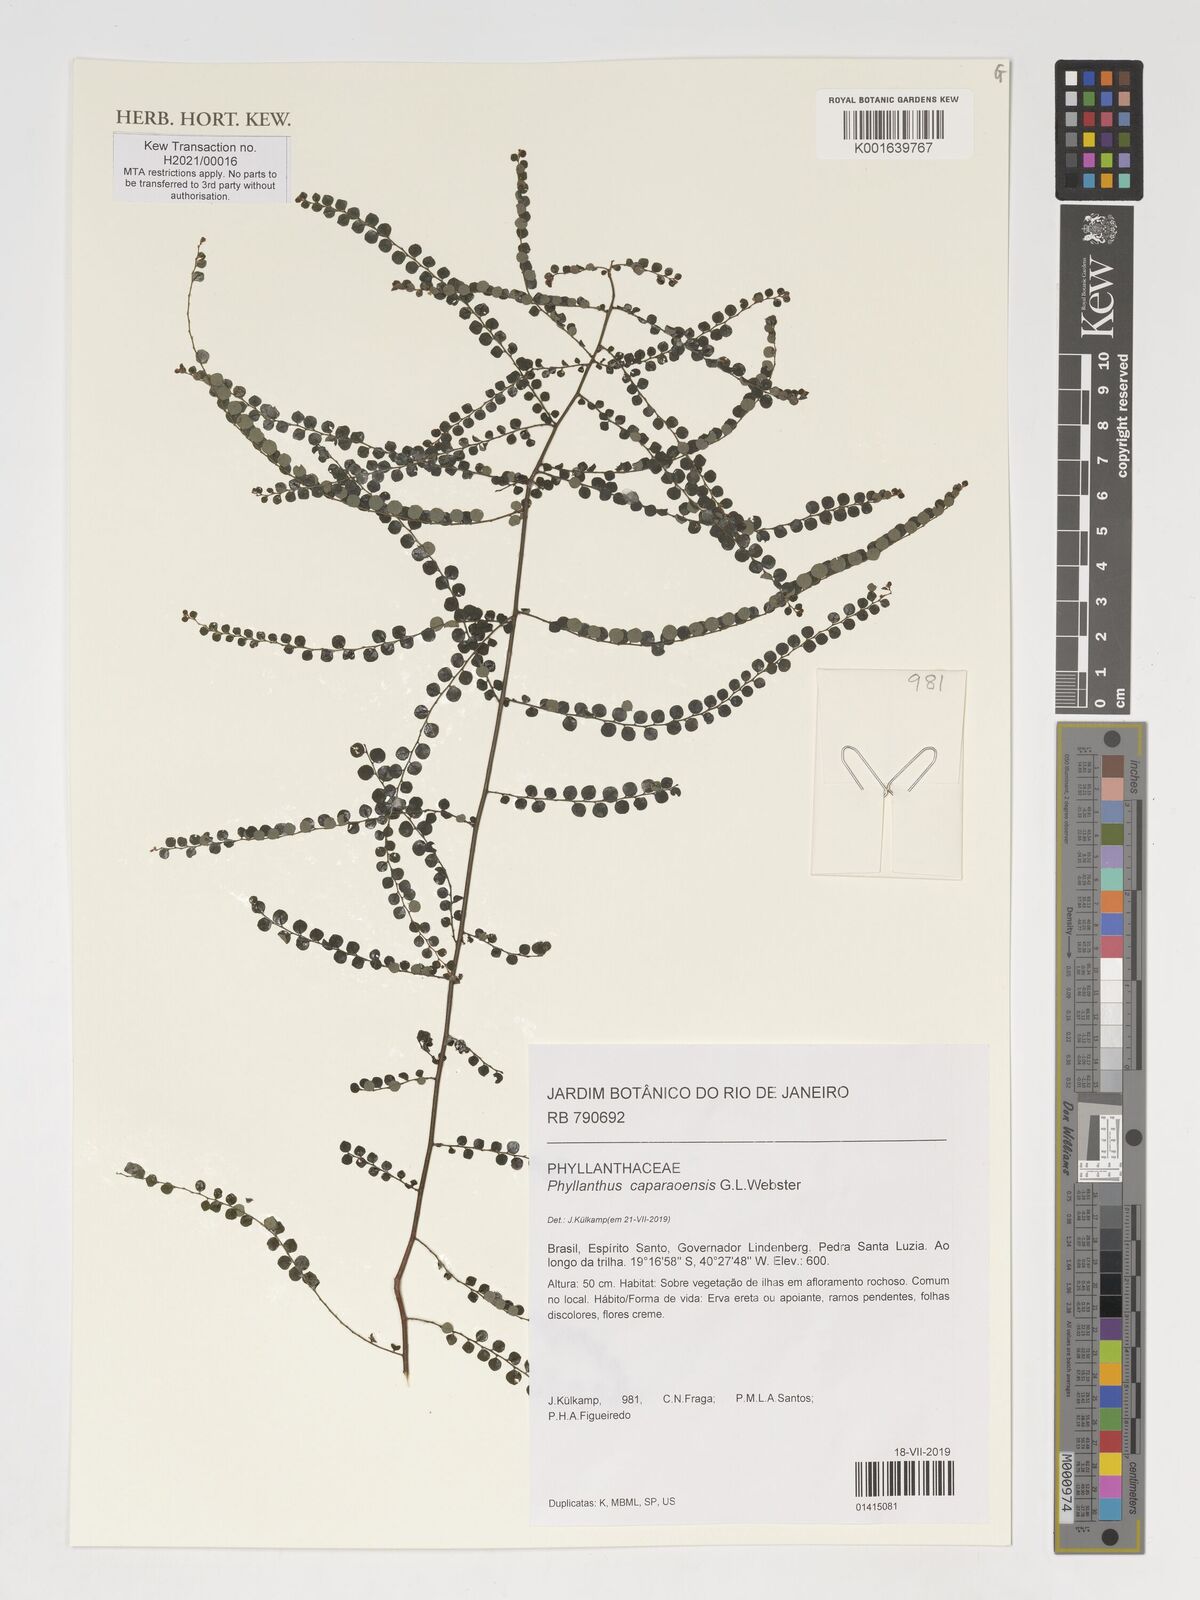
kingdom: Plantae
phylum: Tracheophyta
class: Magnoliopsida
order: Malpighiales
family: Phyllanthaceae
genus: Phyllanthus
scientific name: Phyllanthus caparaoensis
